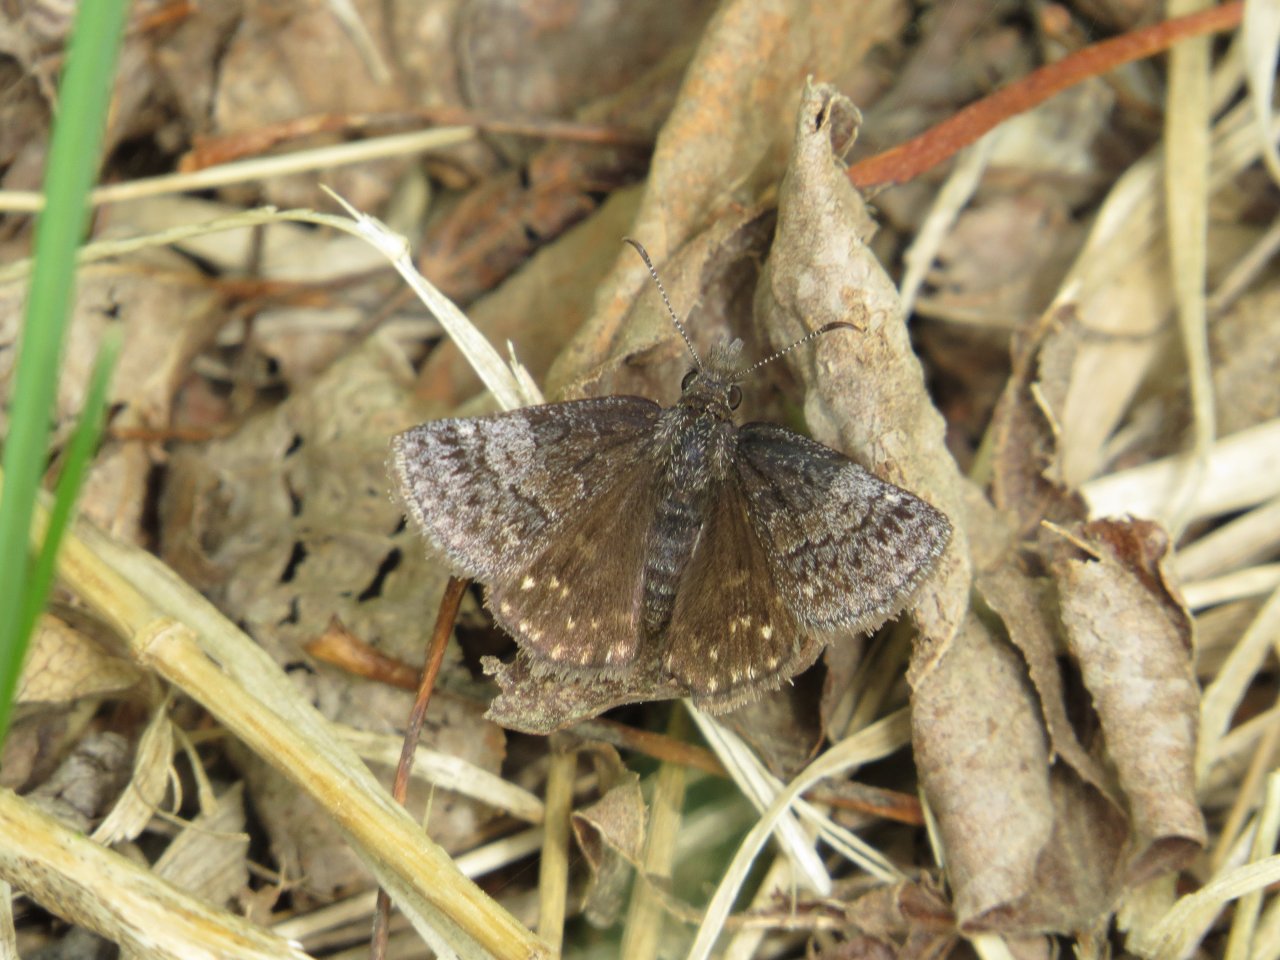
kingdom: Animalia
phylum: Arthropoda
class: Insecta
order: Lepidoptera
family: Hesperiidae
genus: Erynnis
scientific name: Erynnis icelus
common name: Dreamy Duskywing
